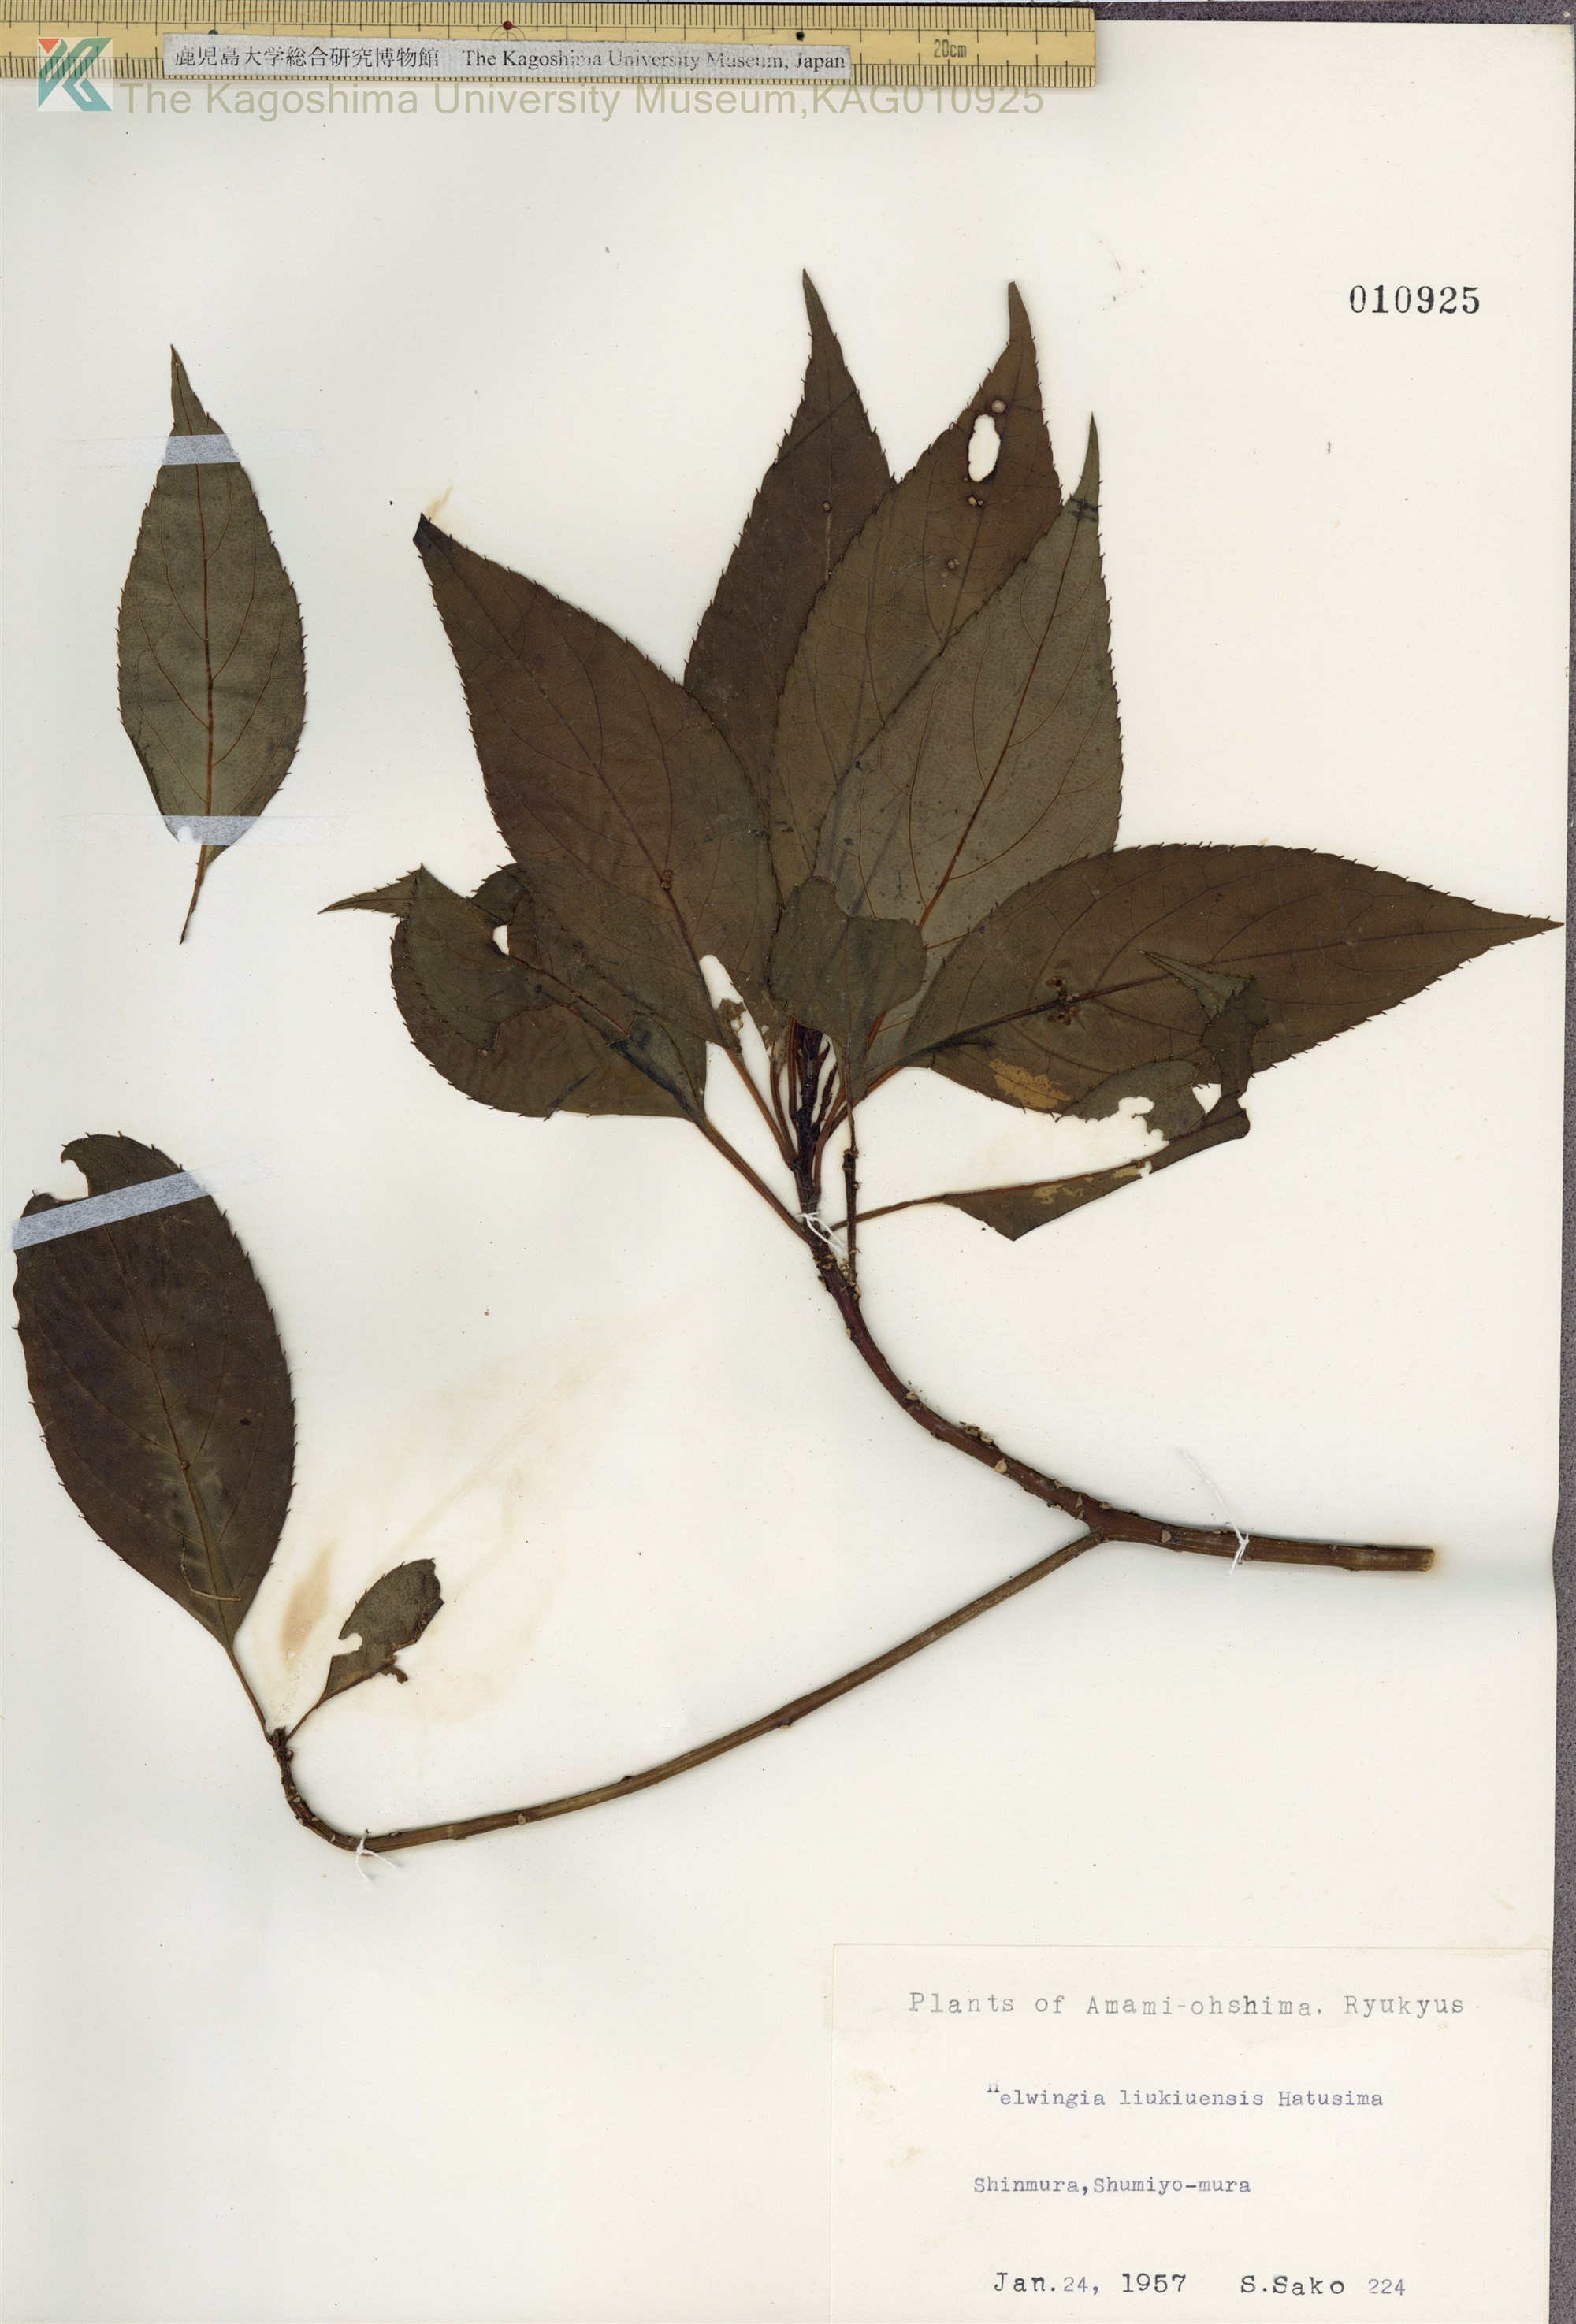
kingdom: Plantae
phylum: Tracheophyta
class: Magnoliopsida
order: Aquifoliales
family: Helwingiaceae
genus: Helwingia
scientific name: Helwingia japonica
